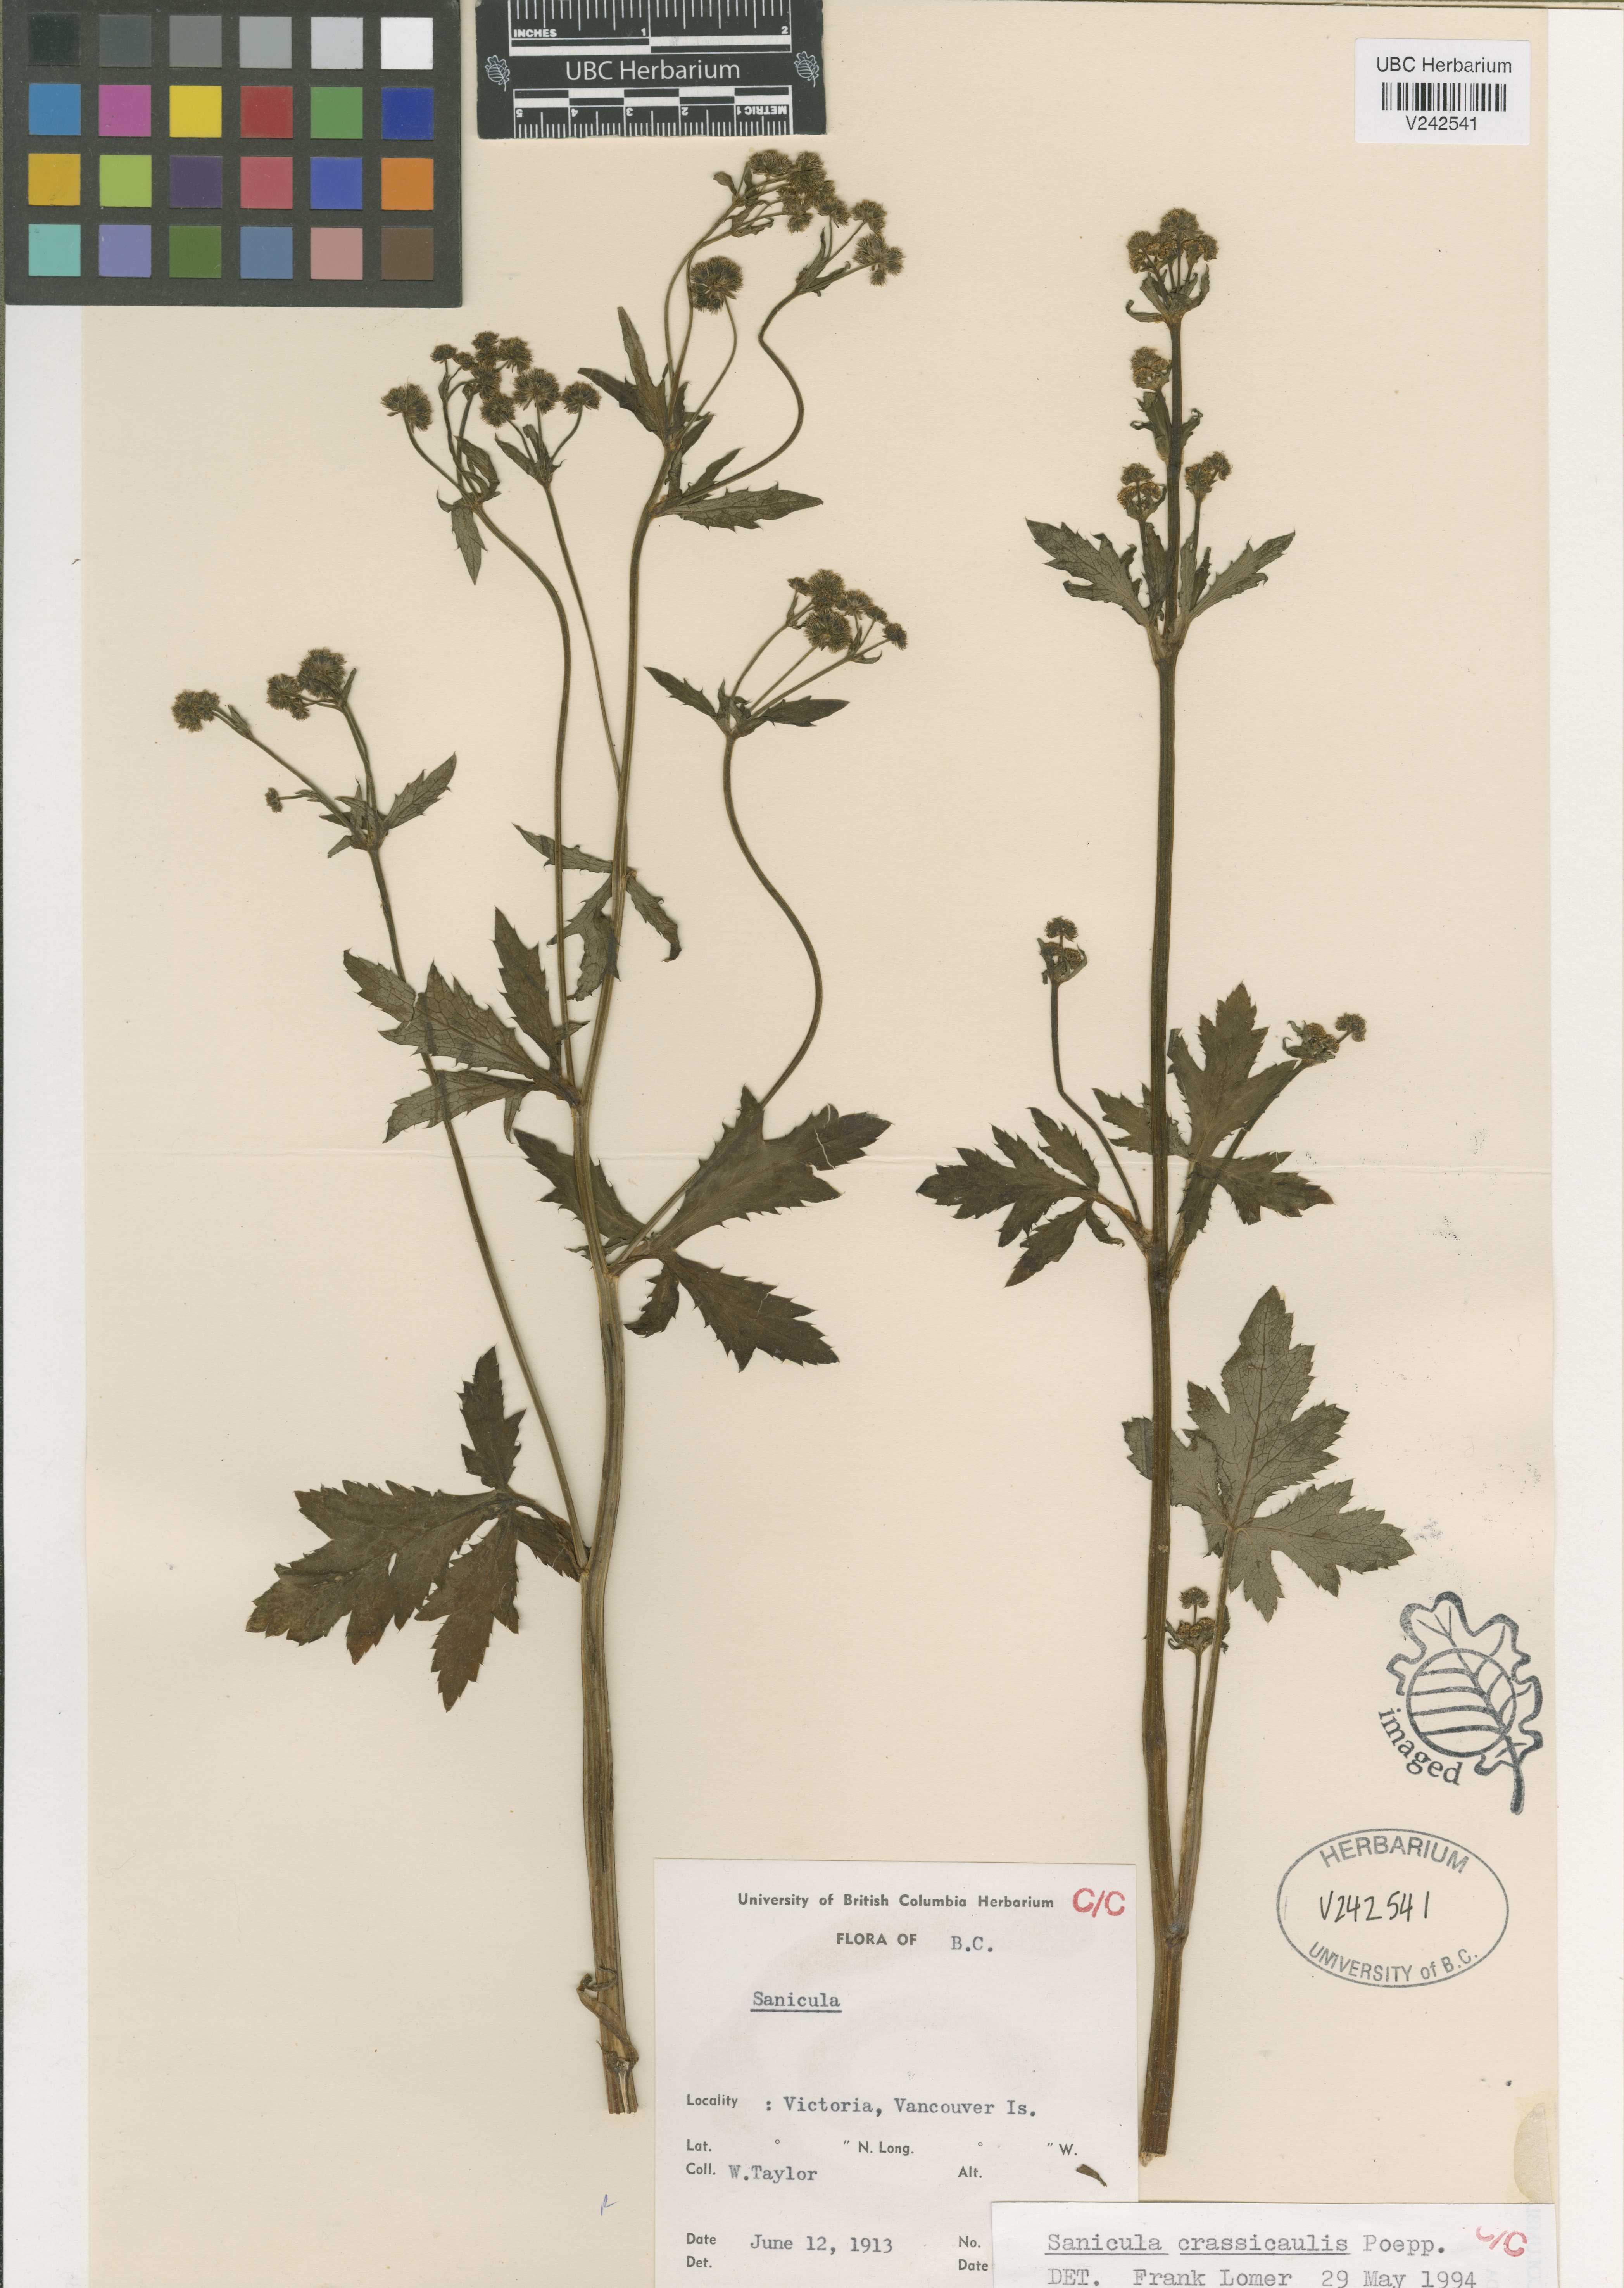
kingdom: Plantae
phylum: Tracheophyta
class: Magnoliopsida
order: Apiales
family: Apiaceae
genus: Sanicula
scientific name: Sanicula crassicaulis
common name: Western snakeroot
